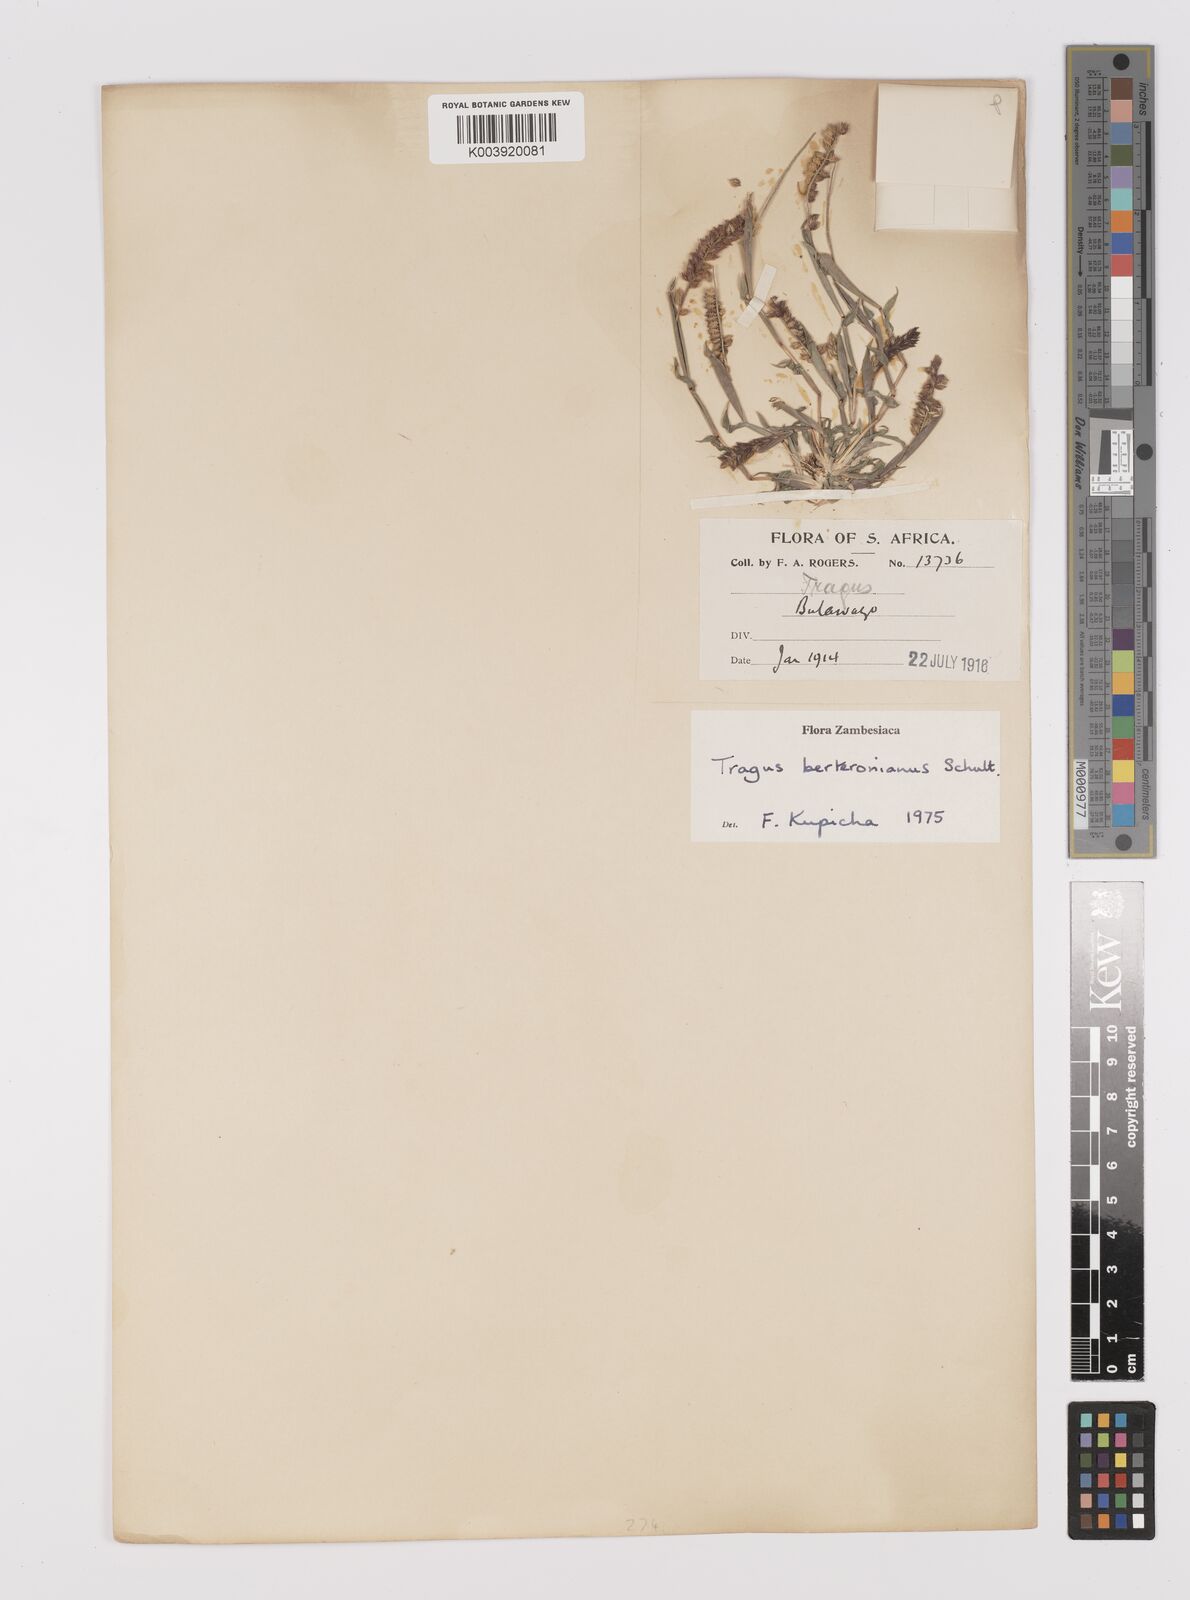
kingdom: Plantae
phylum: Tracheophyta
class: Liliopsida
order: Poales
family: Poaceae
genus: Tragus
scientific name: Tragus berteronianus
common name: African bur-grass
